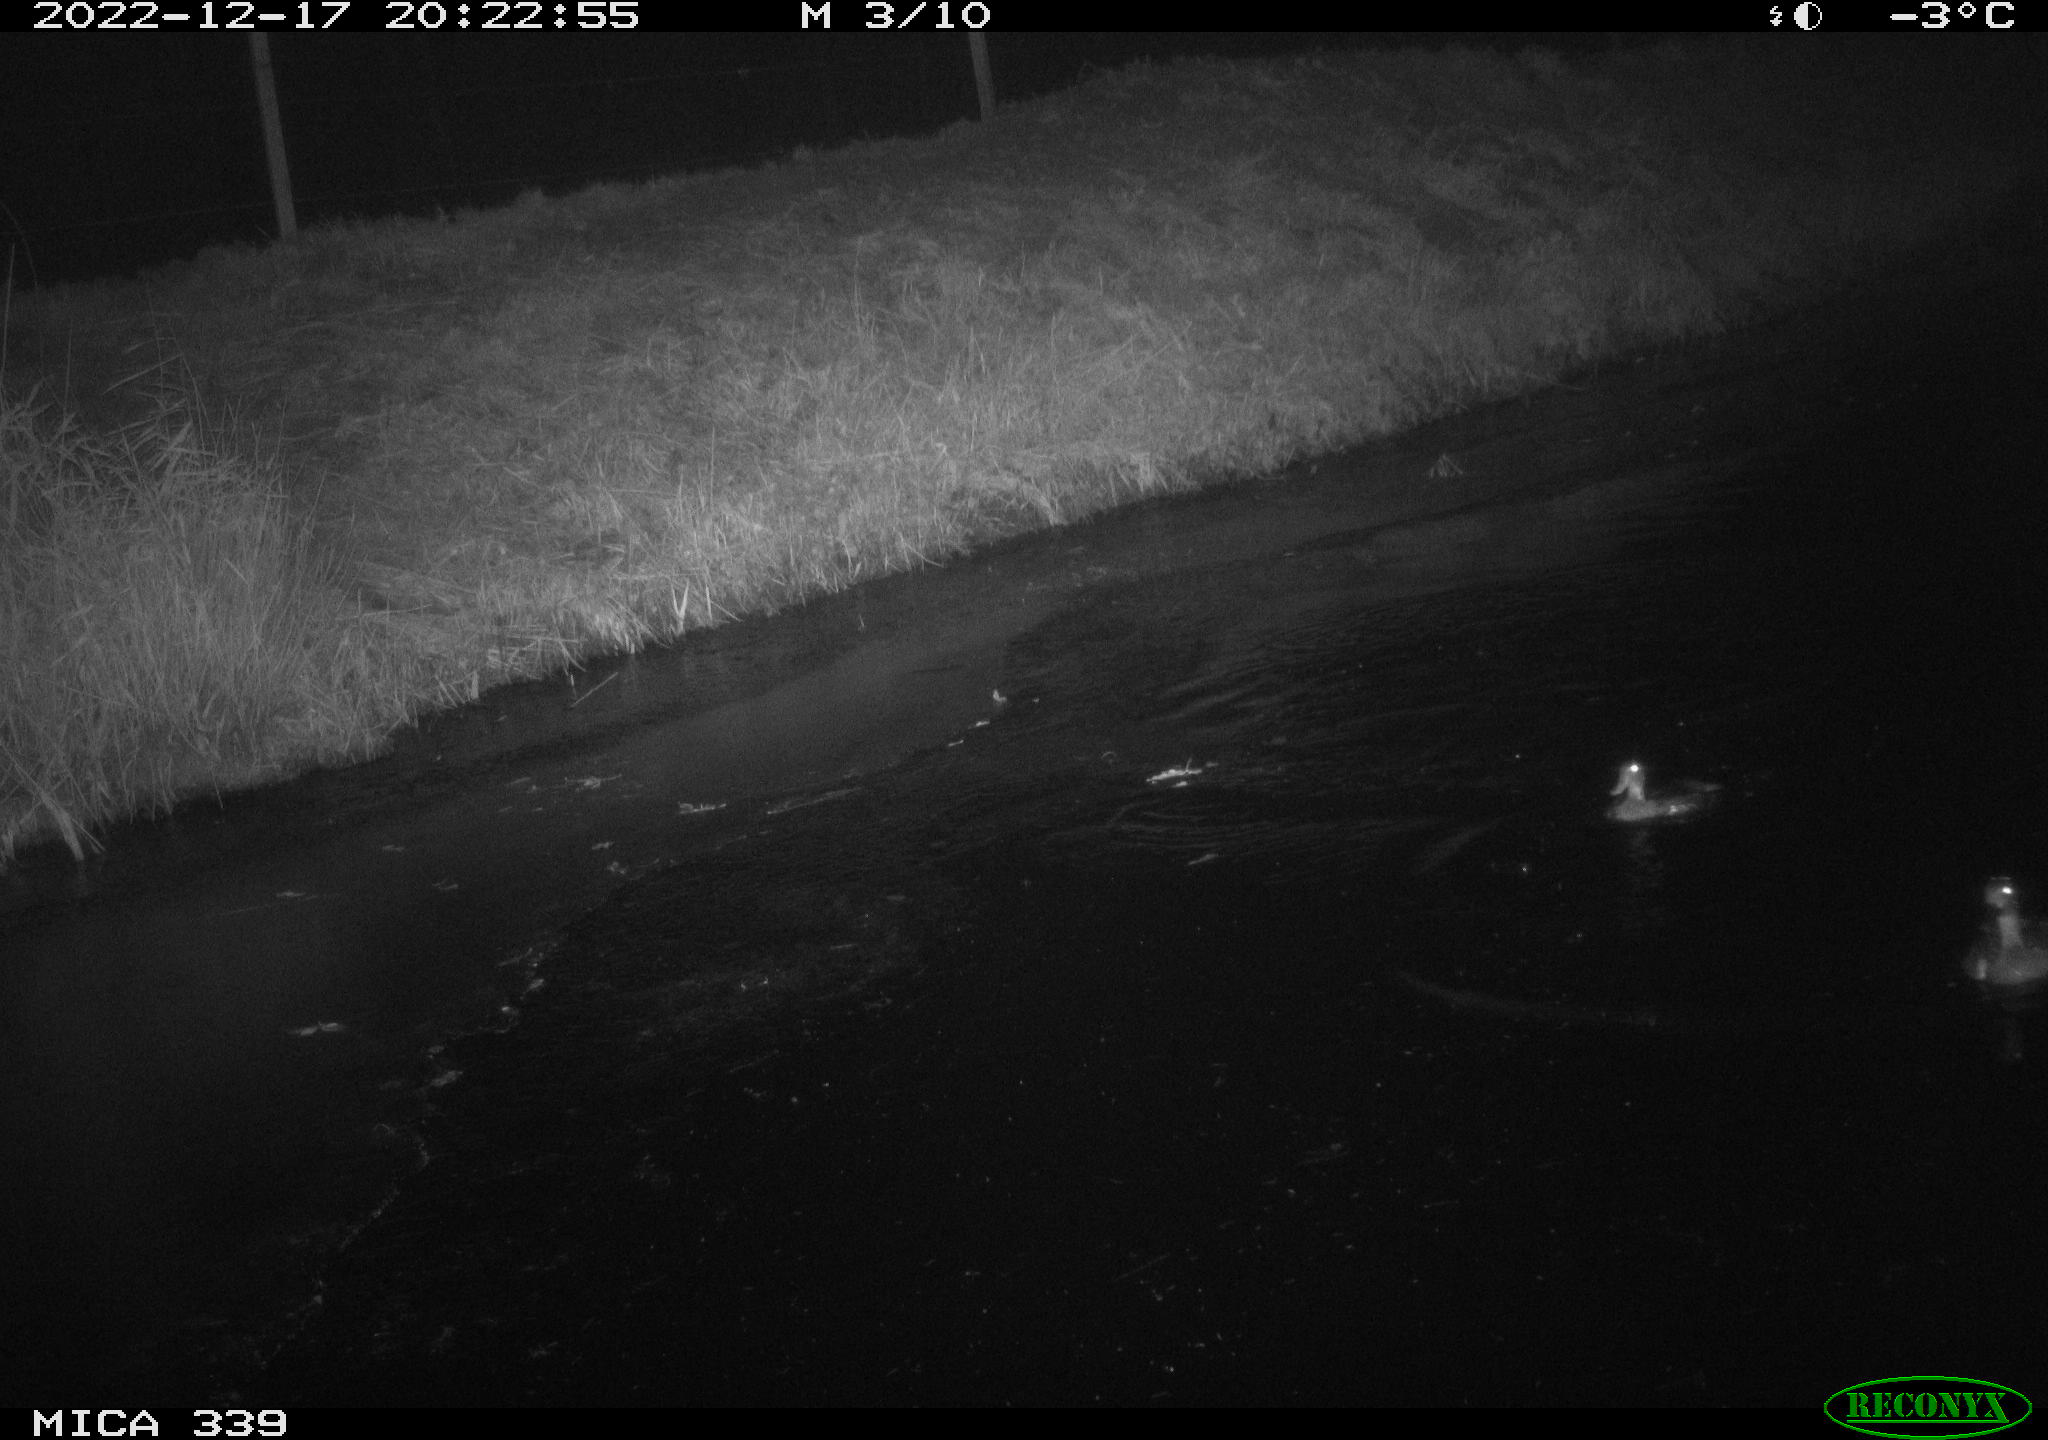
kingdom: Animalia
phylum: Chordata
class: Aves
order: Anseriformes
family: Anatidae
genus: Anas
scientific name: Anas
